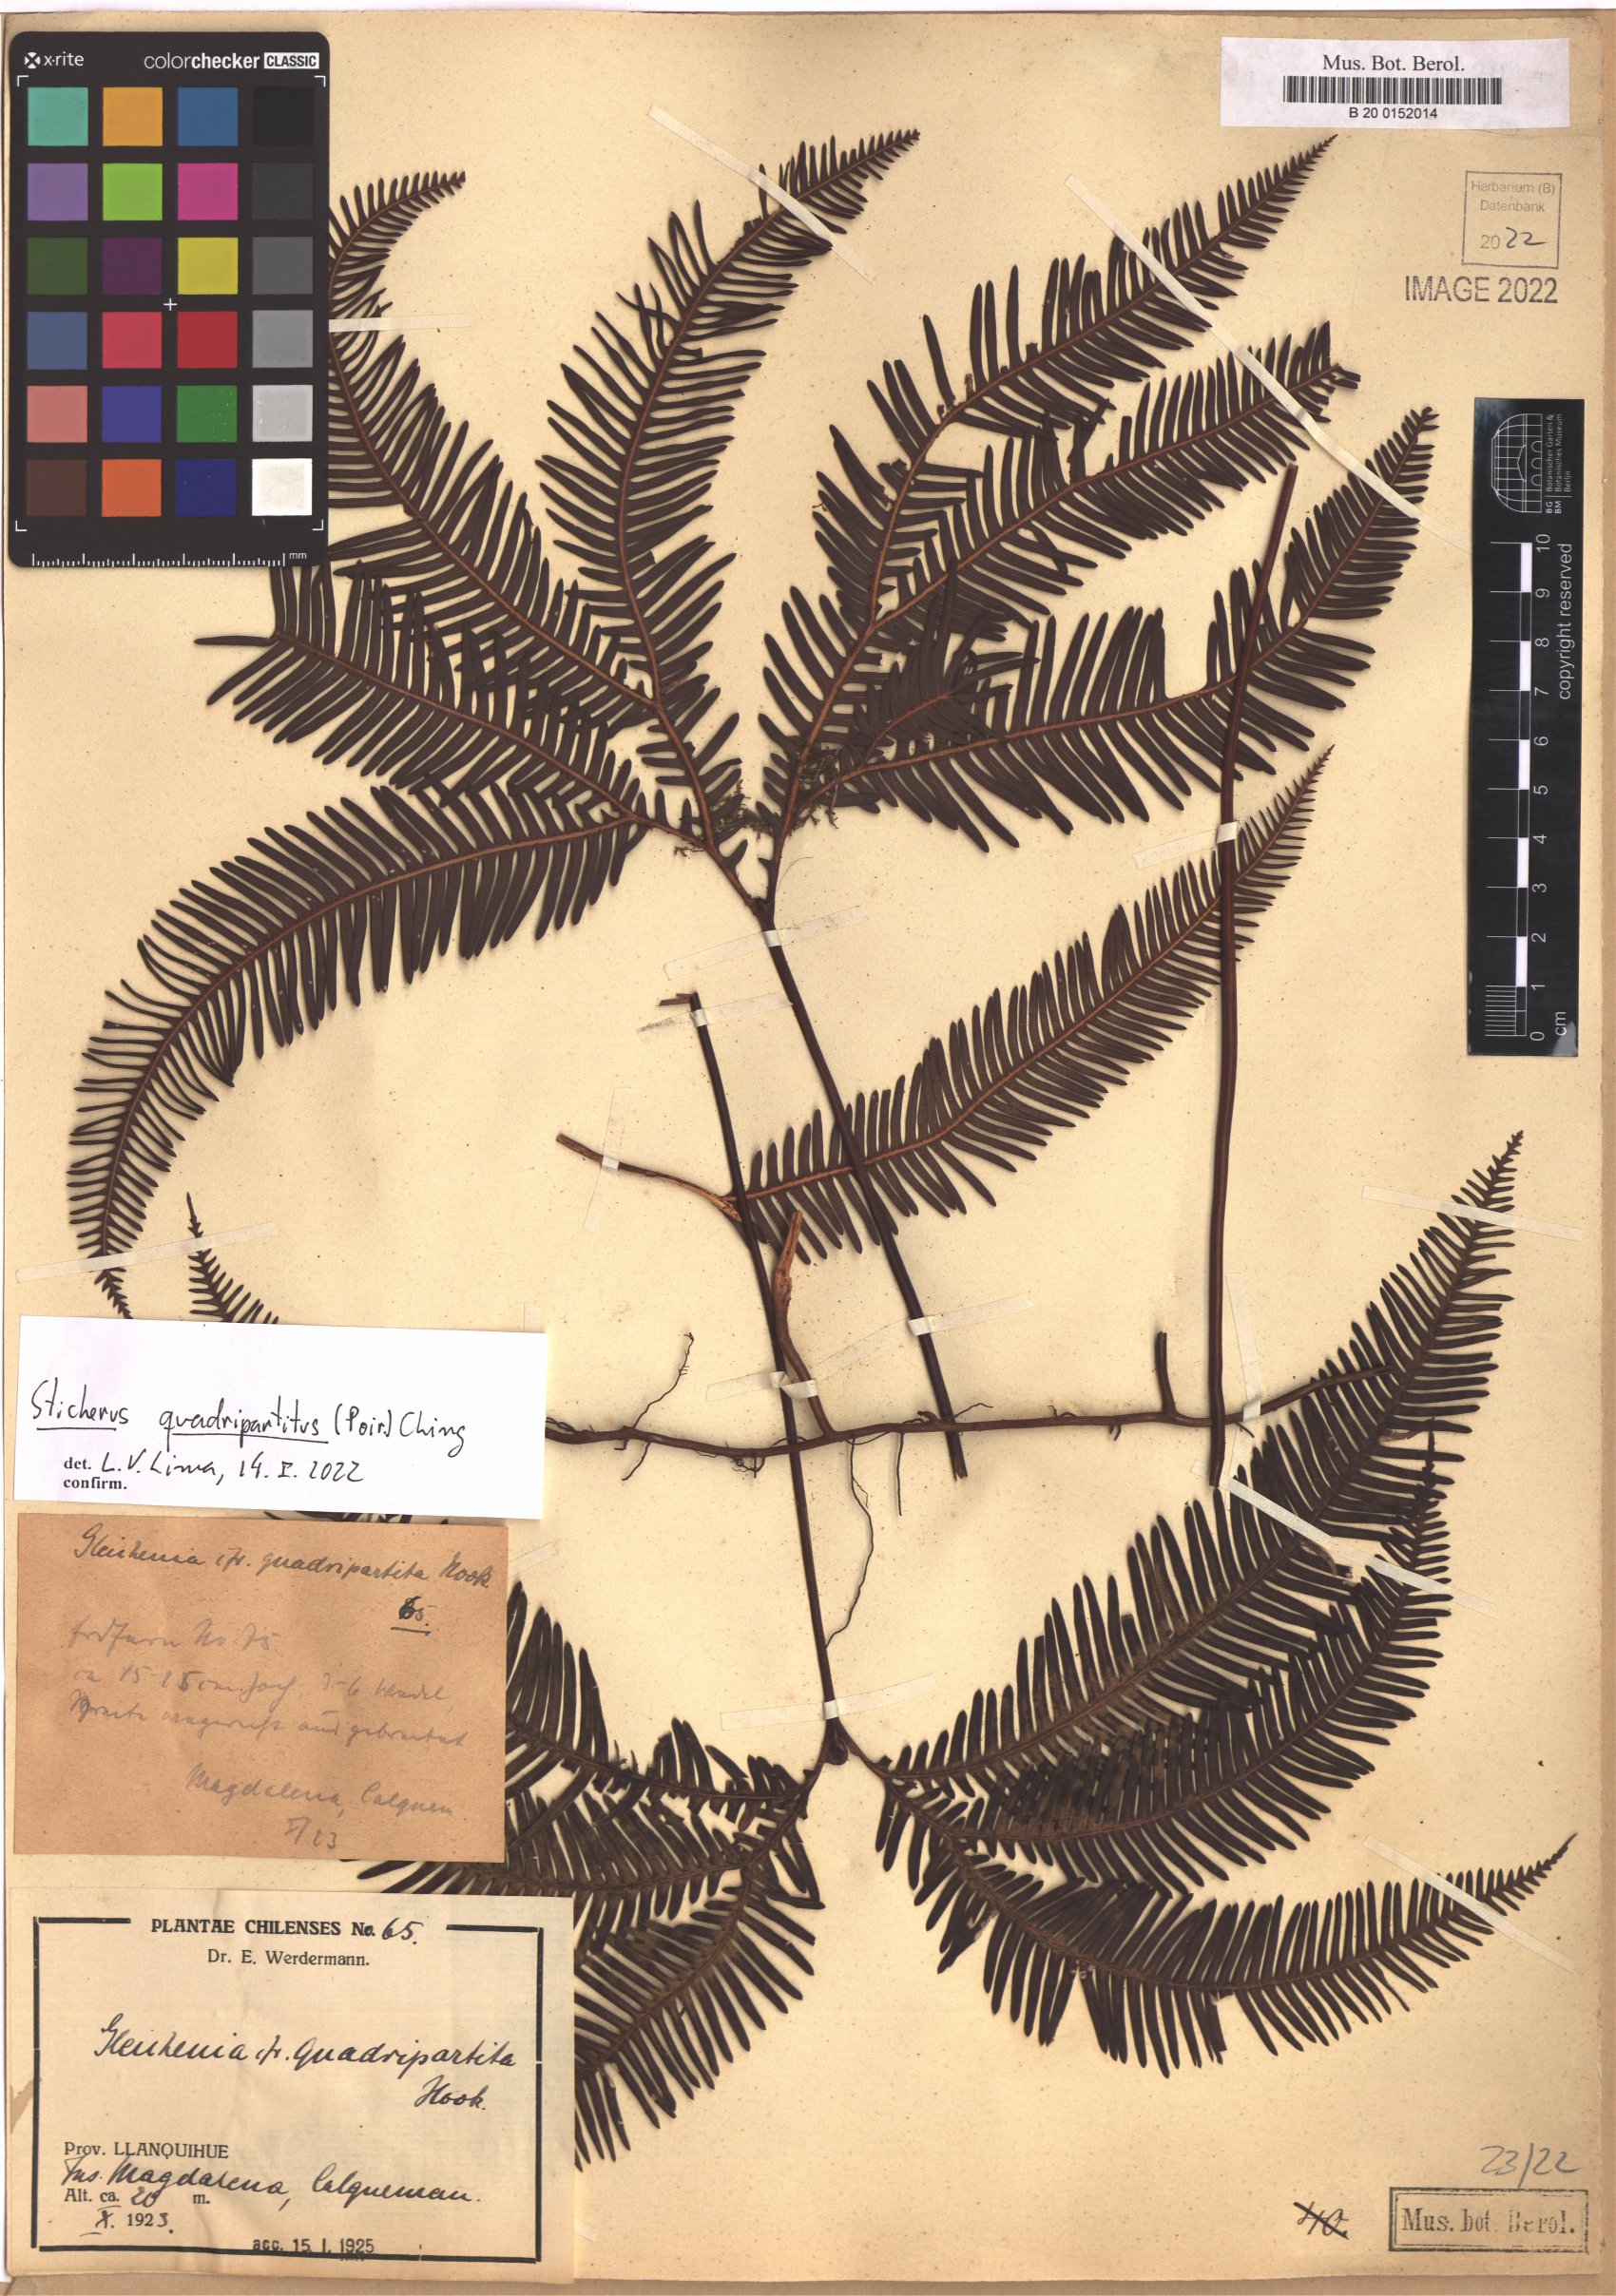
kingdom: Plantae
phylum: Tracheophyta
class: Polypodiopsida
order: Gleicheniales
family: Gleicheniaceae
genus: Sticherus
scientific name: Sticherus quadripartitus
